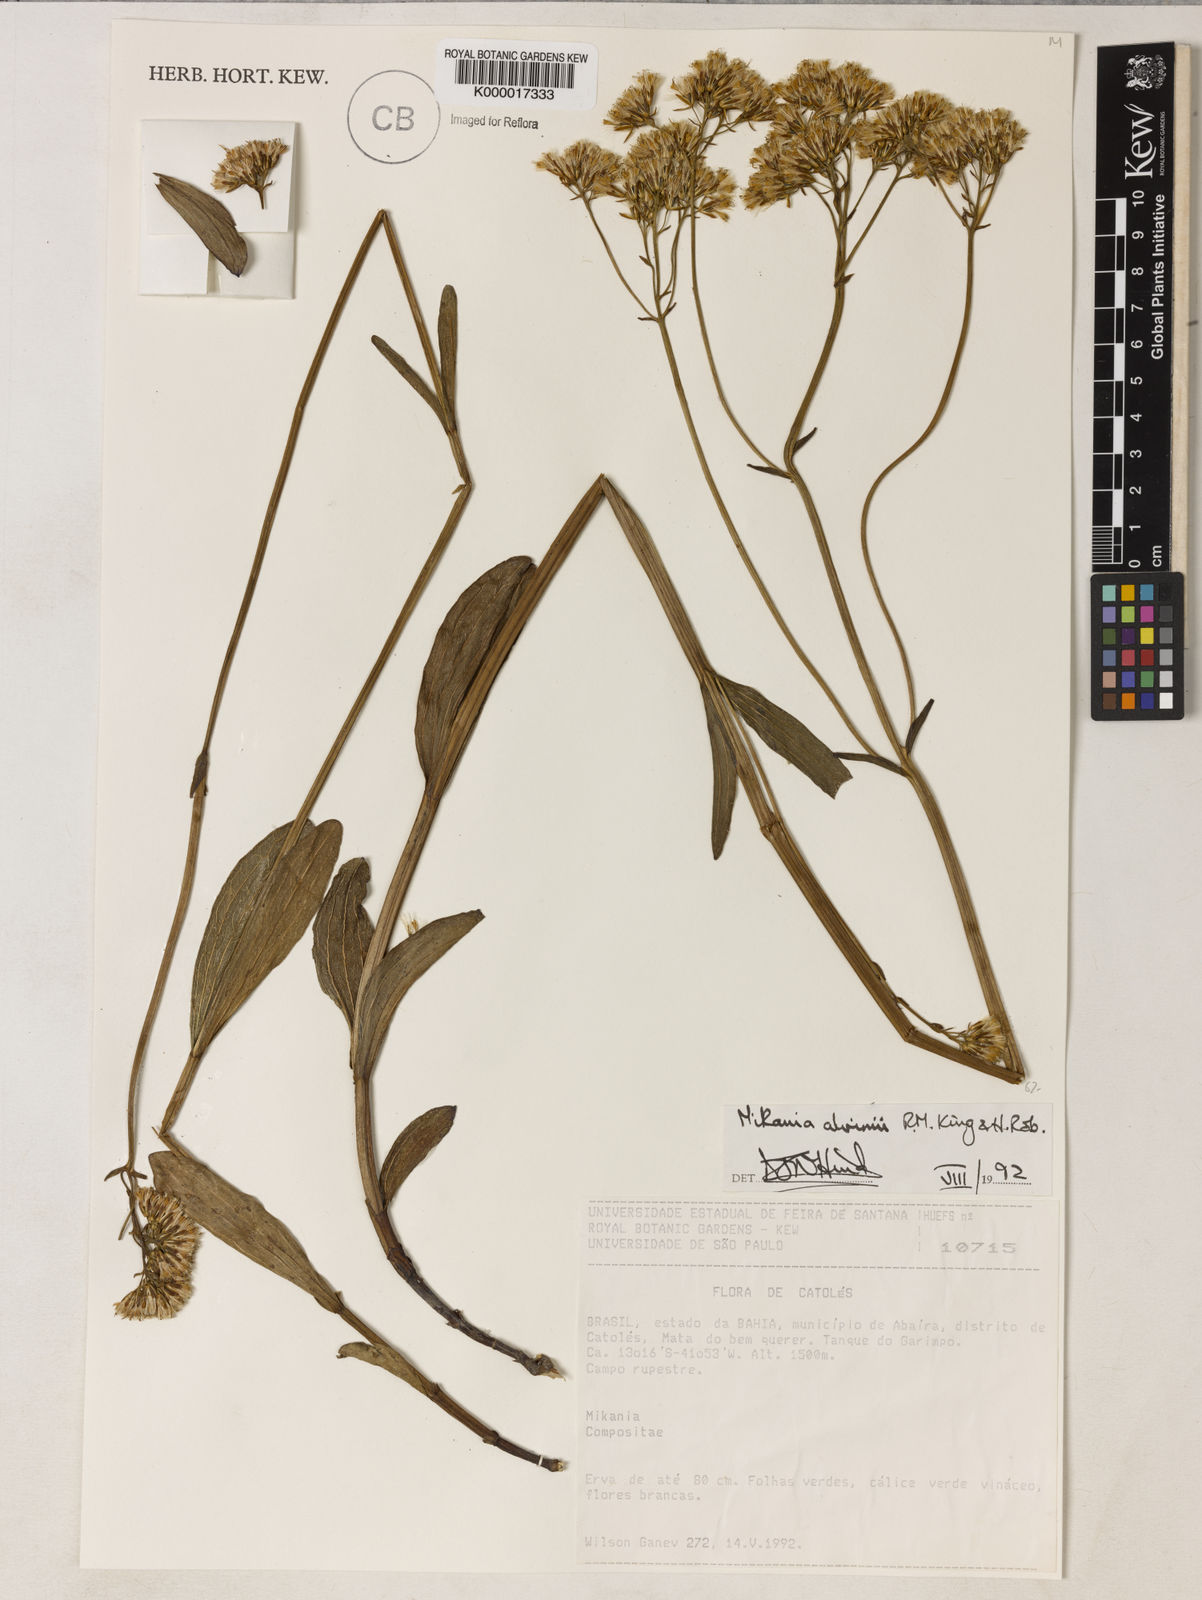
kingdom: Plantae
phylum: Tracheophyta
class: Magnoliopsida
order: Asterales
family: Asteraceae
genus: Mikania
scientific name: Mikania alvimii
